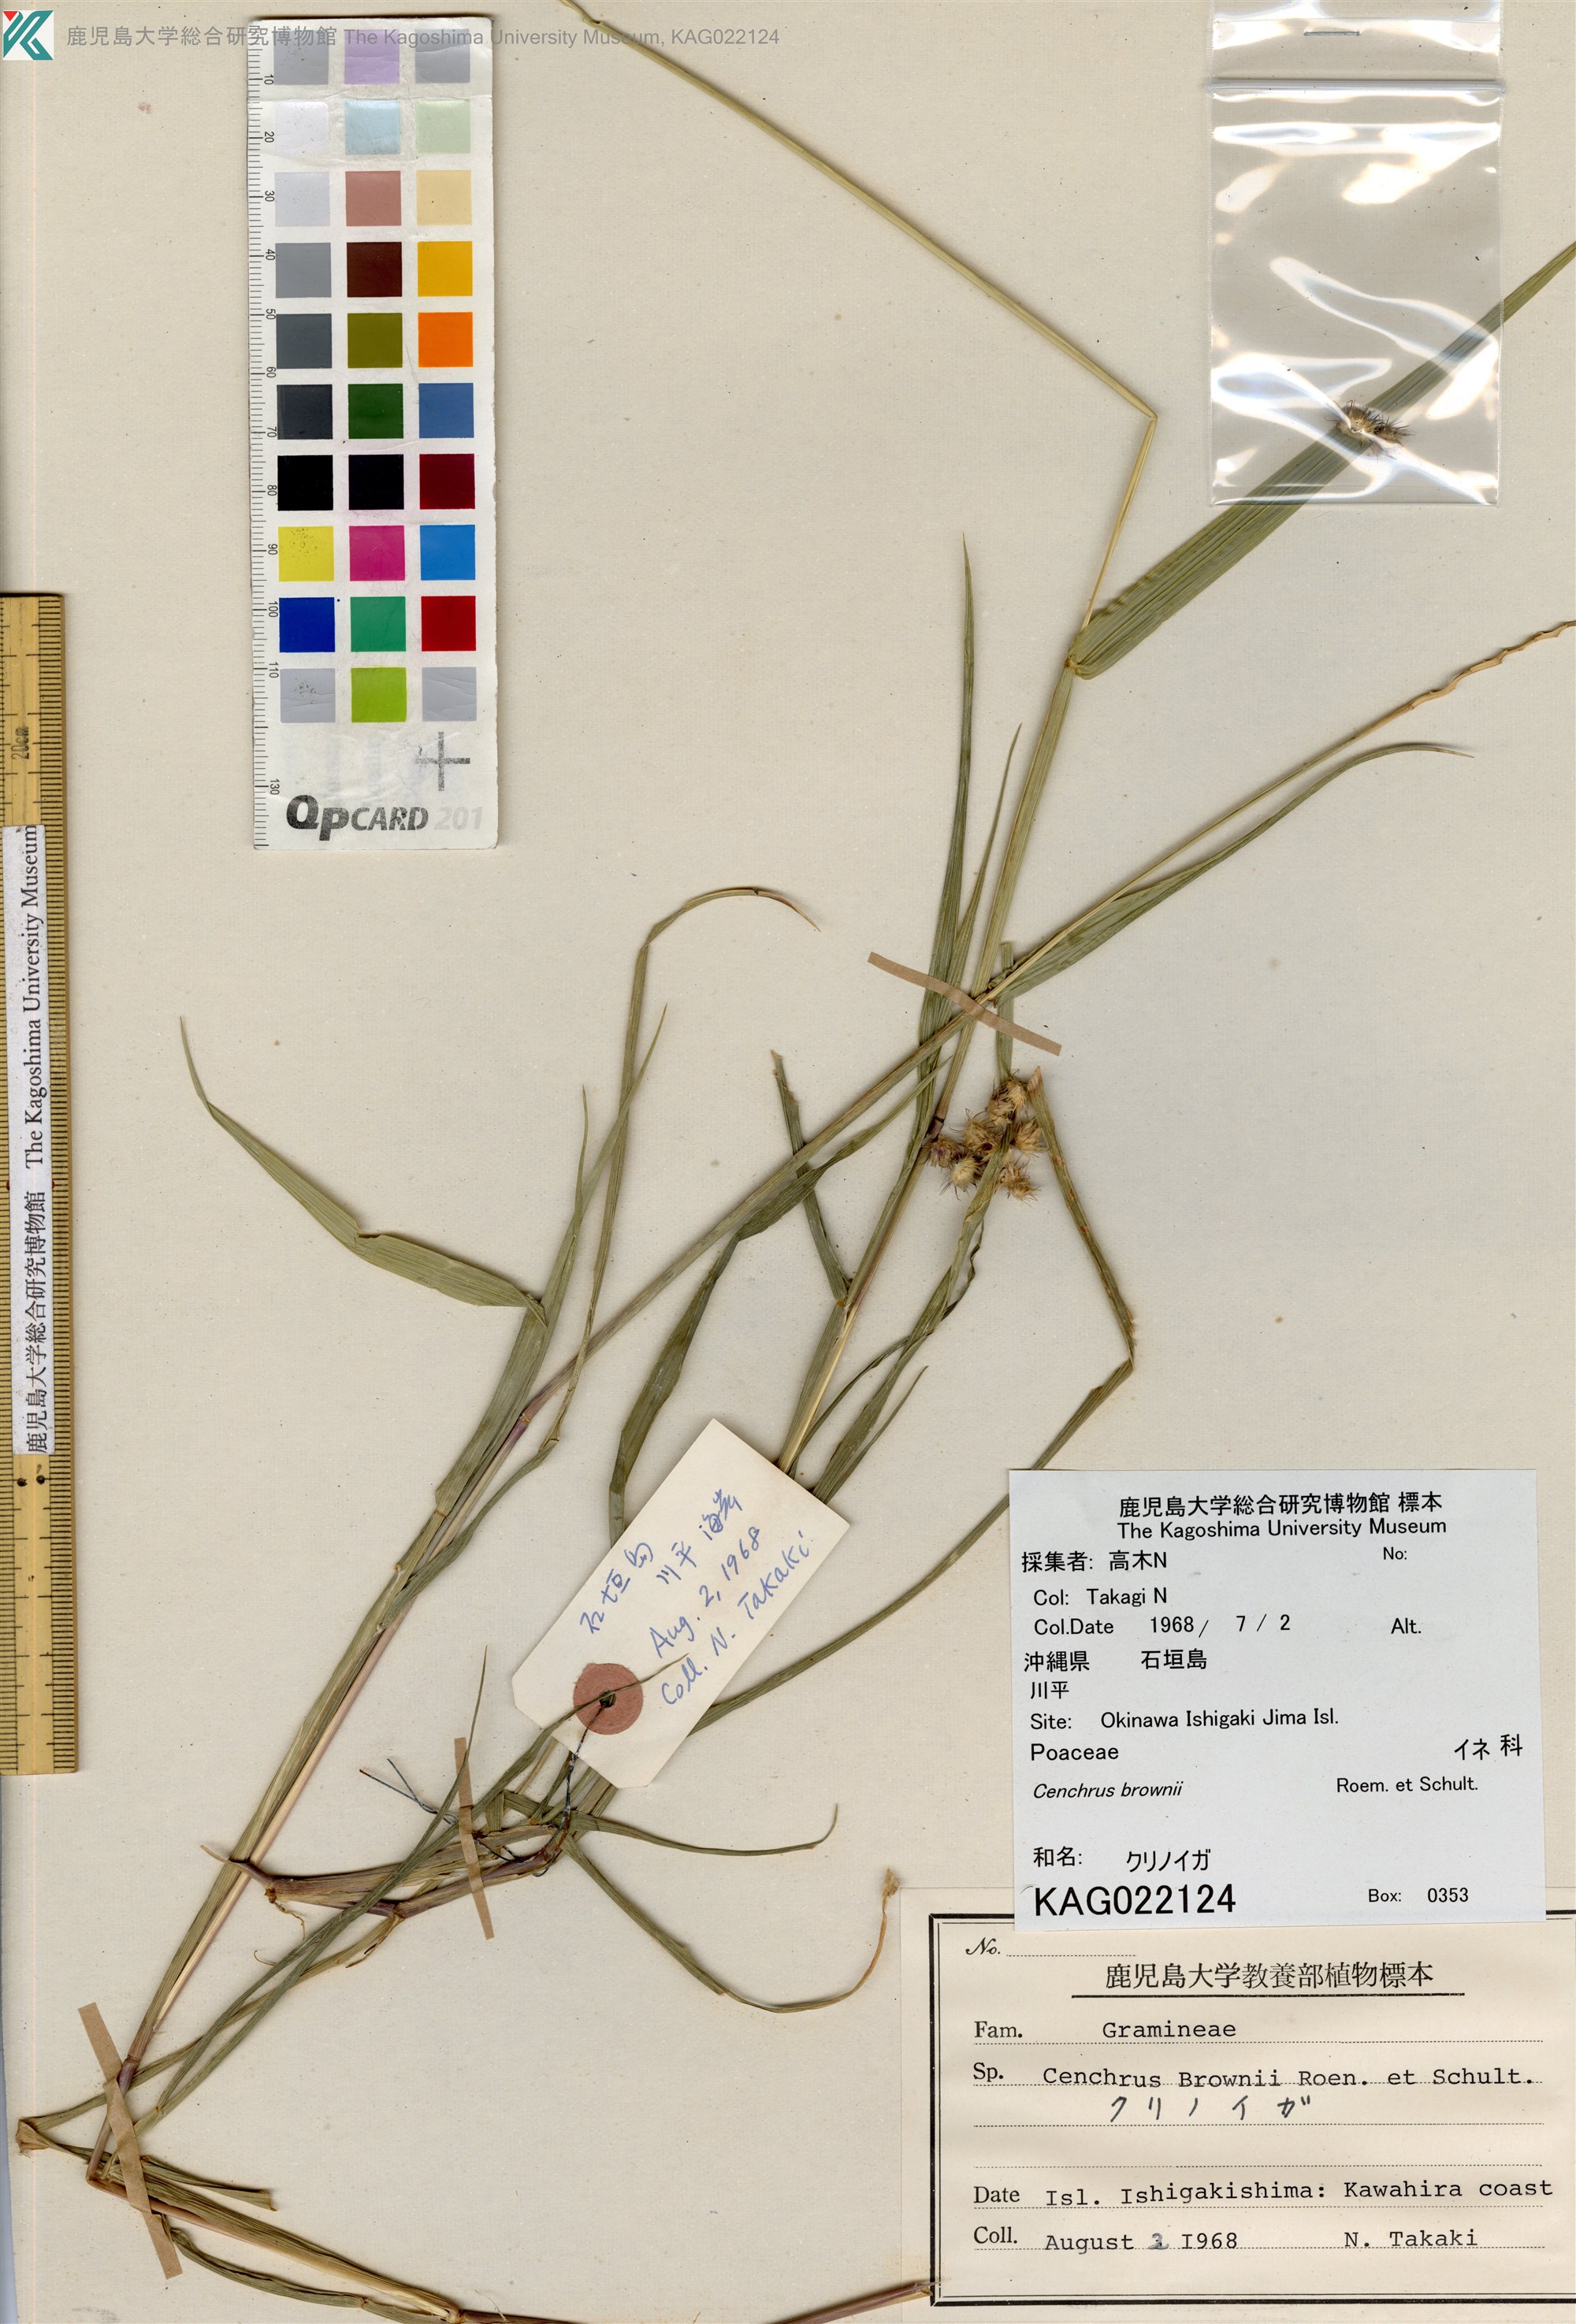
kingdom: Plantae
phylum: Tracheophyta
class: Liliopsida
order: Poales
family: Poaceae
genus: Cenchrus
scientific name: Cenchrus brownii
